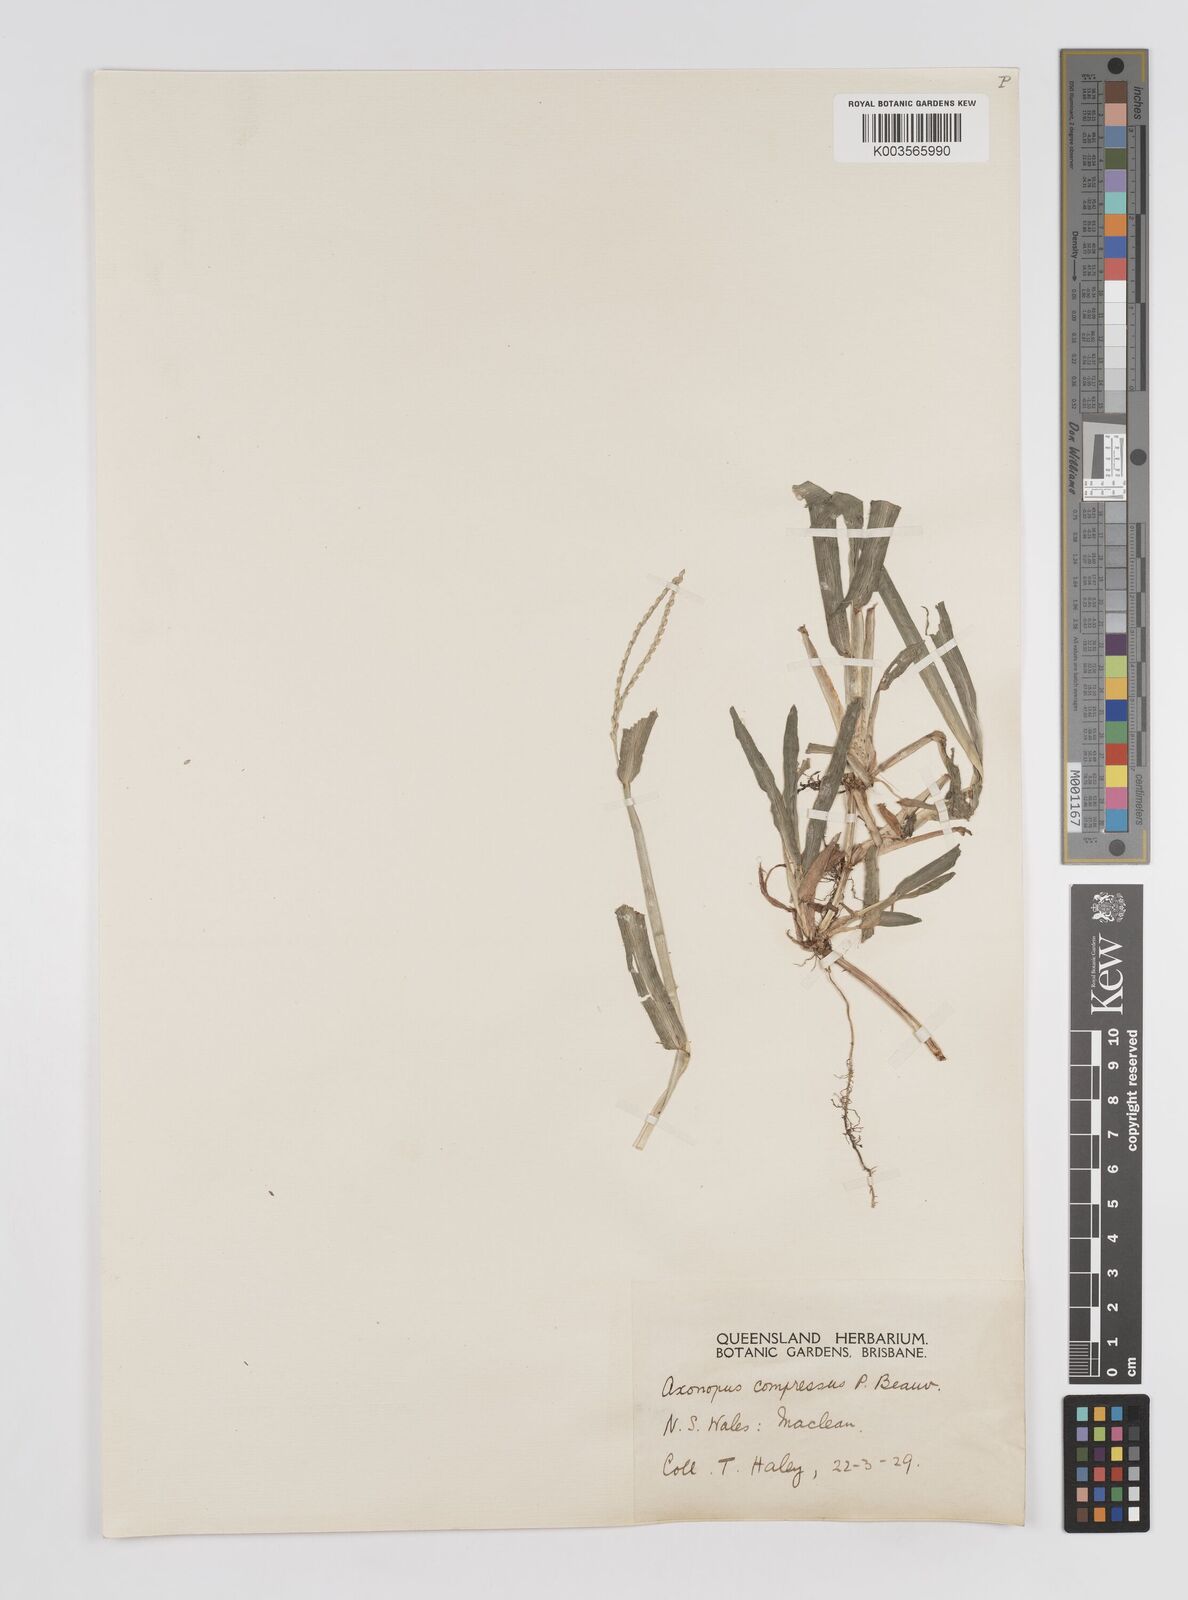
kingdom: Plantae
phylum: Tracheophyta
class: Liliopsida
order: Poales
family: Poaceae
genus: Axonopus
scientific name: Axonopus compressus
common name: American carpet grass
